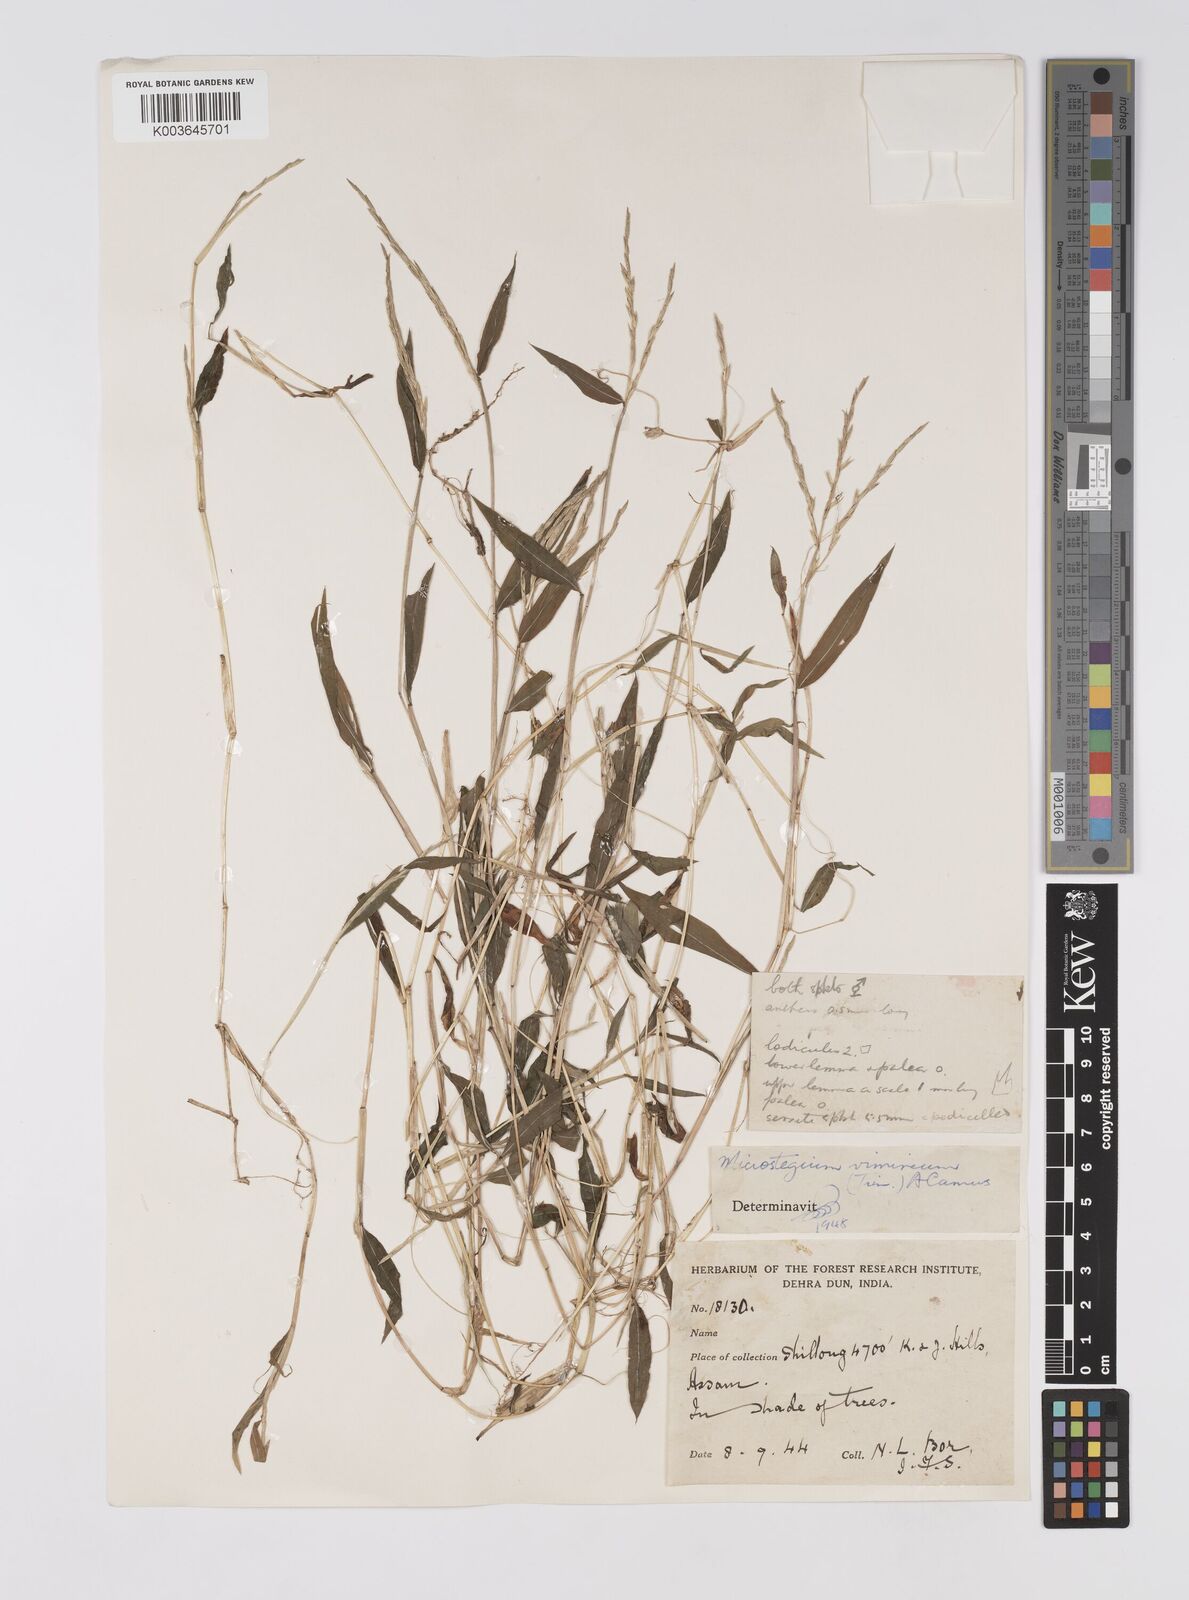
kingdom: Plantae
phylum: Tracheophyta
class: Liliopsida
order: Poales
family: Poaceae
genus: Microstegium
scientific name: Microstegium vimineum
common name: Japanese stiltgrass
